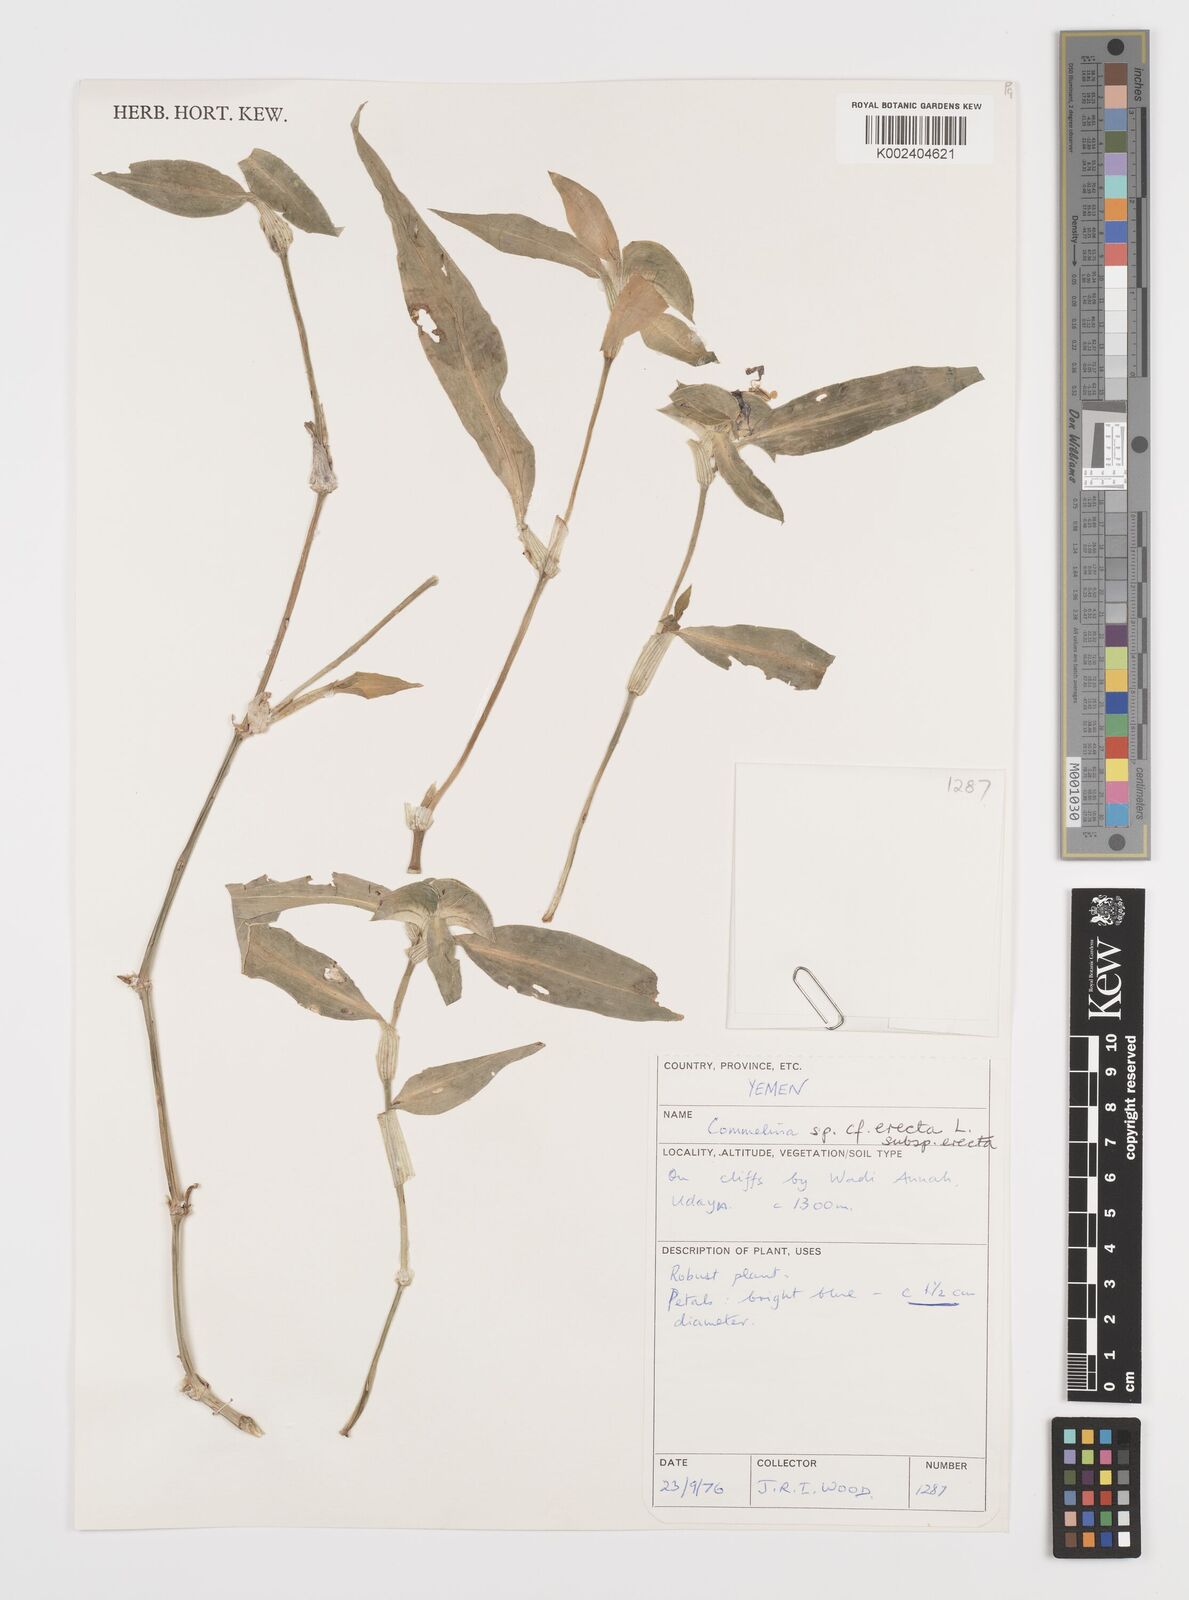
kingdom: Plantae
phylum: Tracheophyta
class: Liliopsida
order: Commelinales
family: Commelinaceae
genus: Commelina
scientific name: Commelina erecta
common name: Blousel blommetjie
